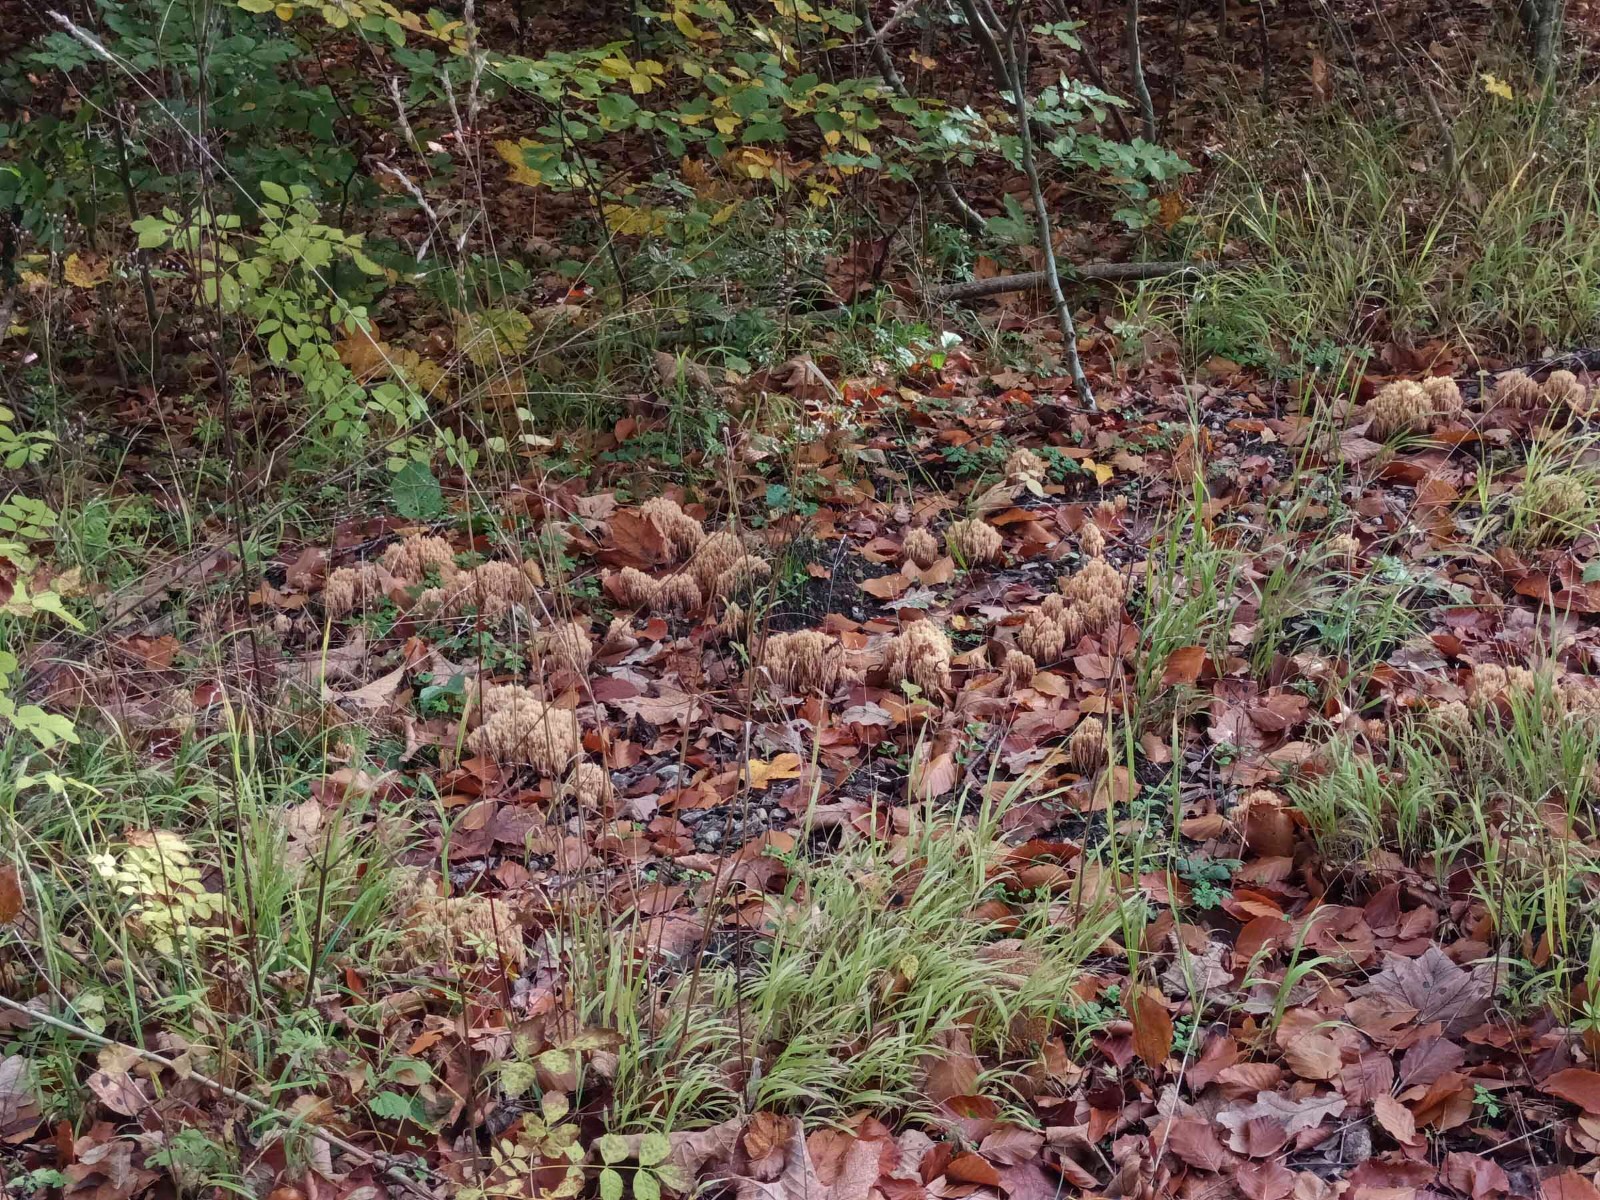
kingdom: Fungi
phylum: Basidiomycota
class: Agaricomycetes
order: Gomphales
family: Gomphaceae
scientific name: Gomphaceae
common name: køllekantarelfamilien
